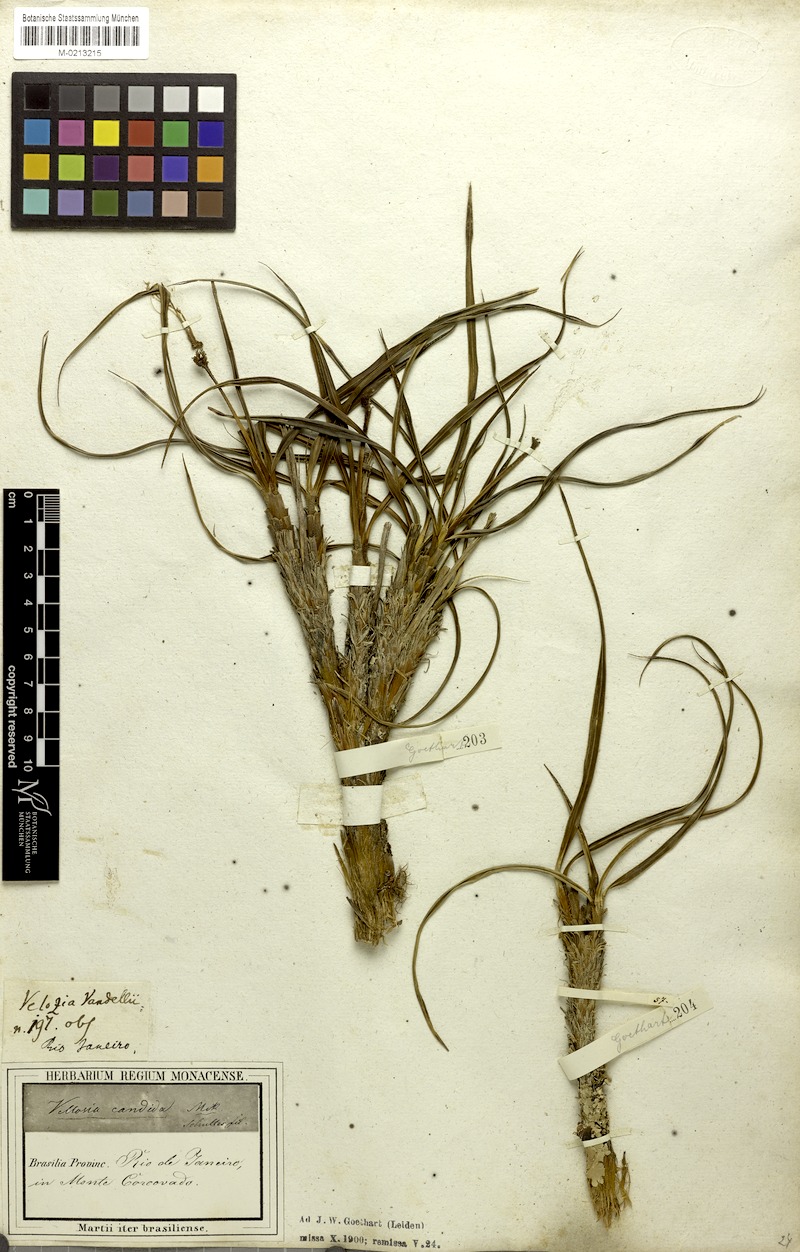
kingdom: Plantae
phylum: Tracheophyta
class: Liliopsida
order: Pandanales
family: Velloziaceae
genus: Vellozia
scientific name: Vellozia candida
